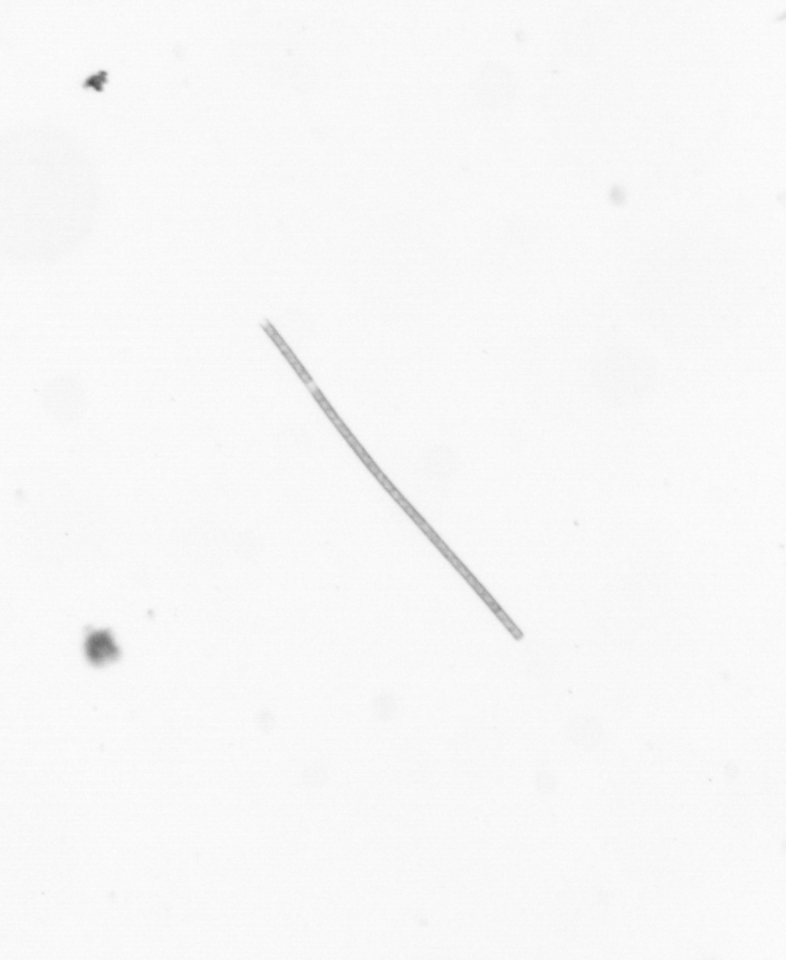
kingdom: Chromista
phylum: Ochrophyta
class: Bacillariophyceae
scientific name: Bacillariophyceae
